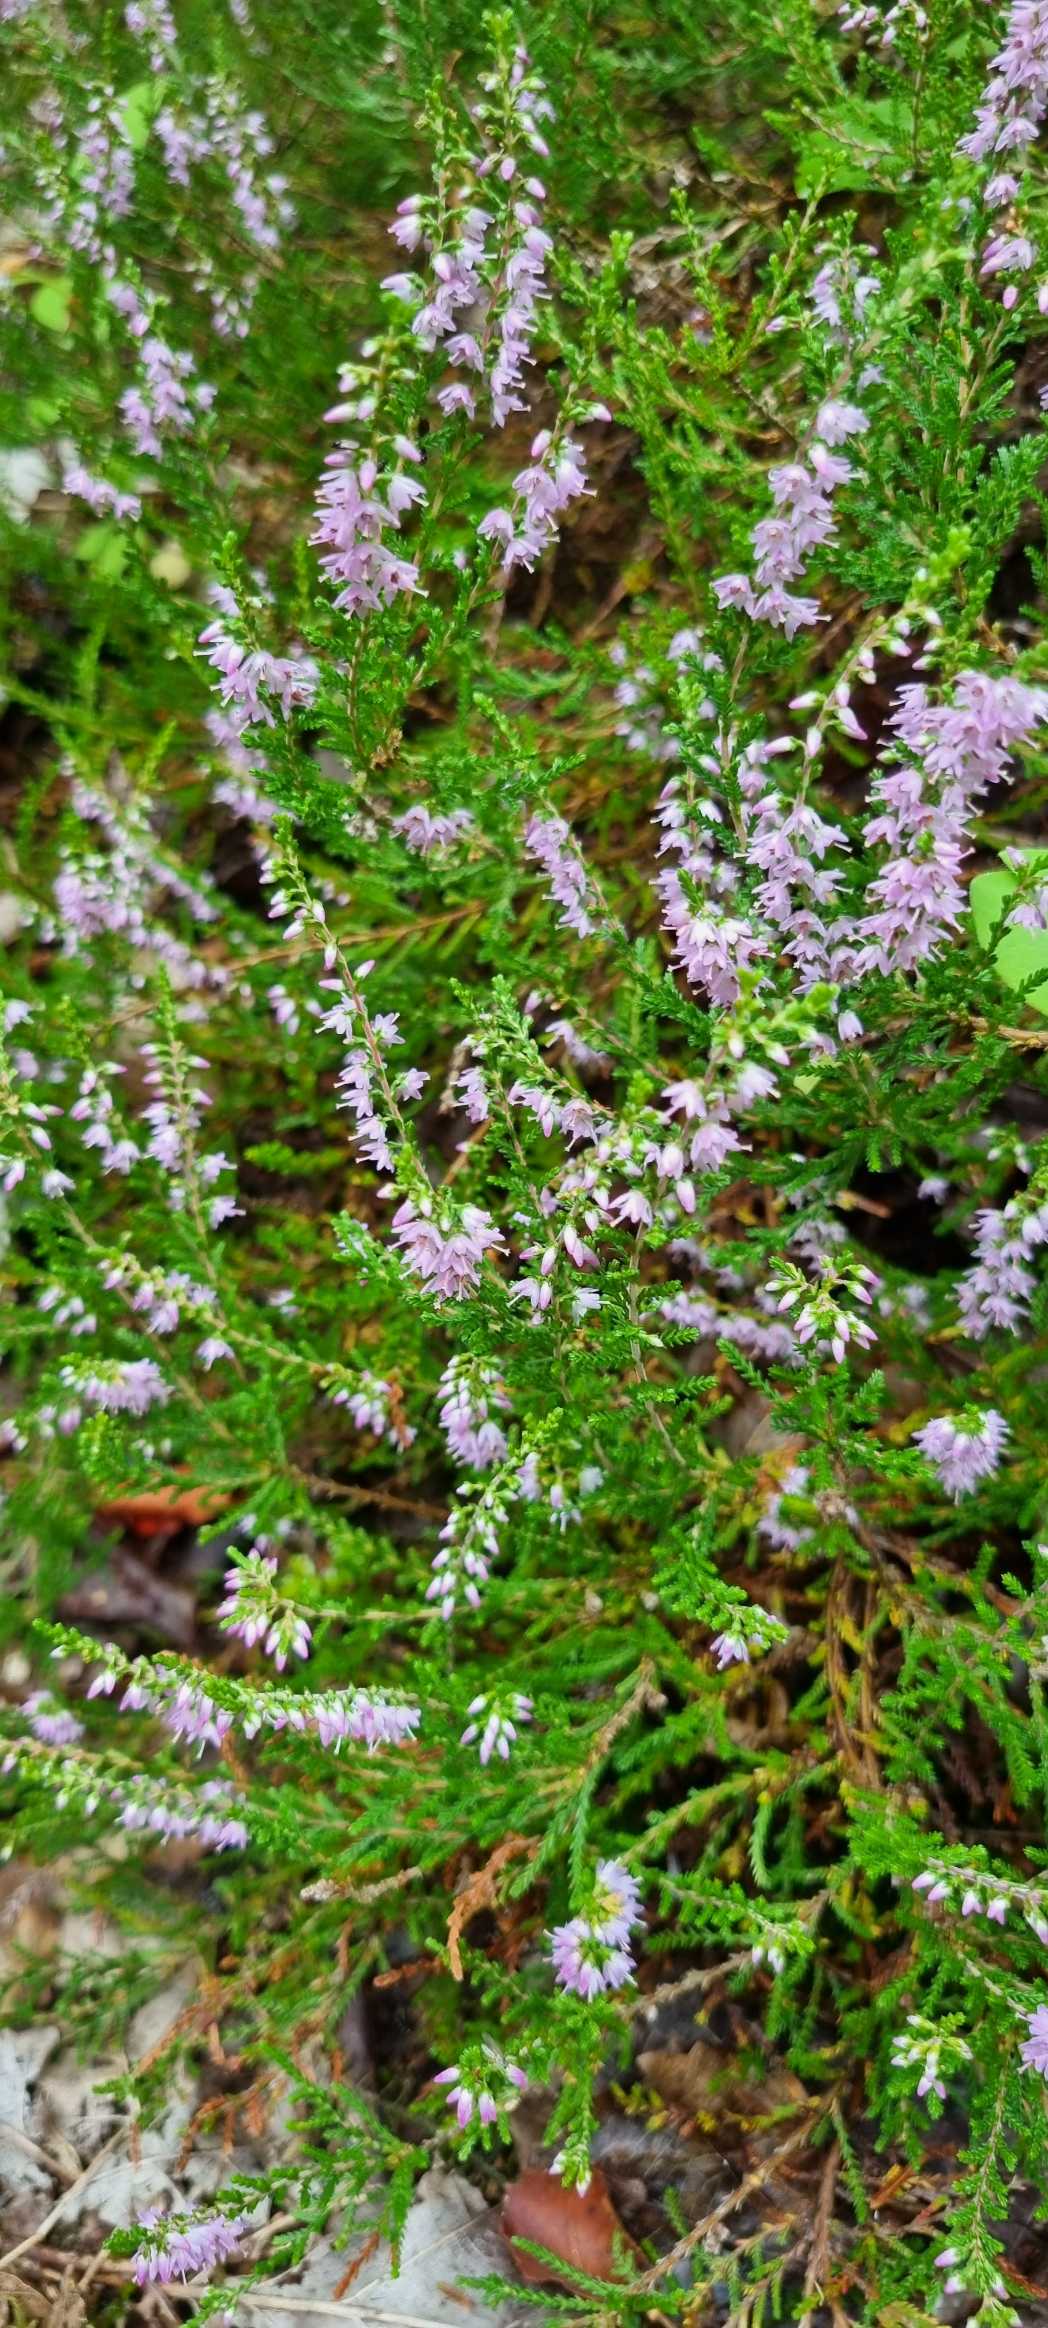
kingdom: Plantae
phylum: Tracheophyta
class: Magnoliopsida
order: Ericales
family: Ericaceae
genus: Calluna
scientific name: Calluna vulgaris
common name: Hedelyng
